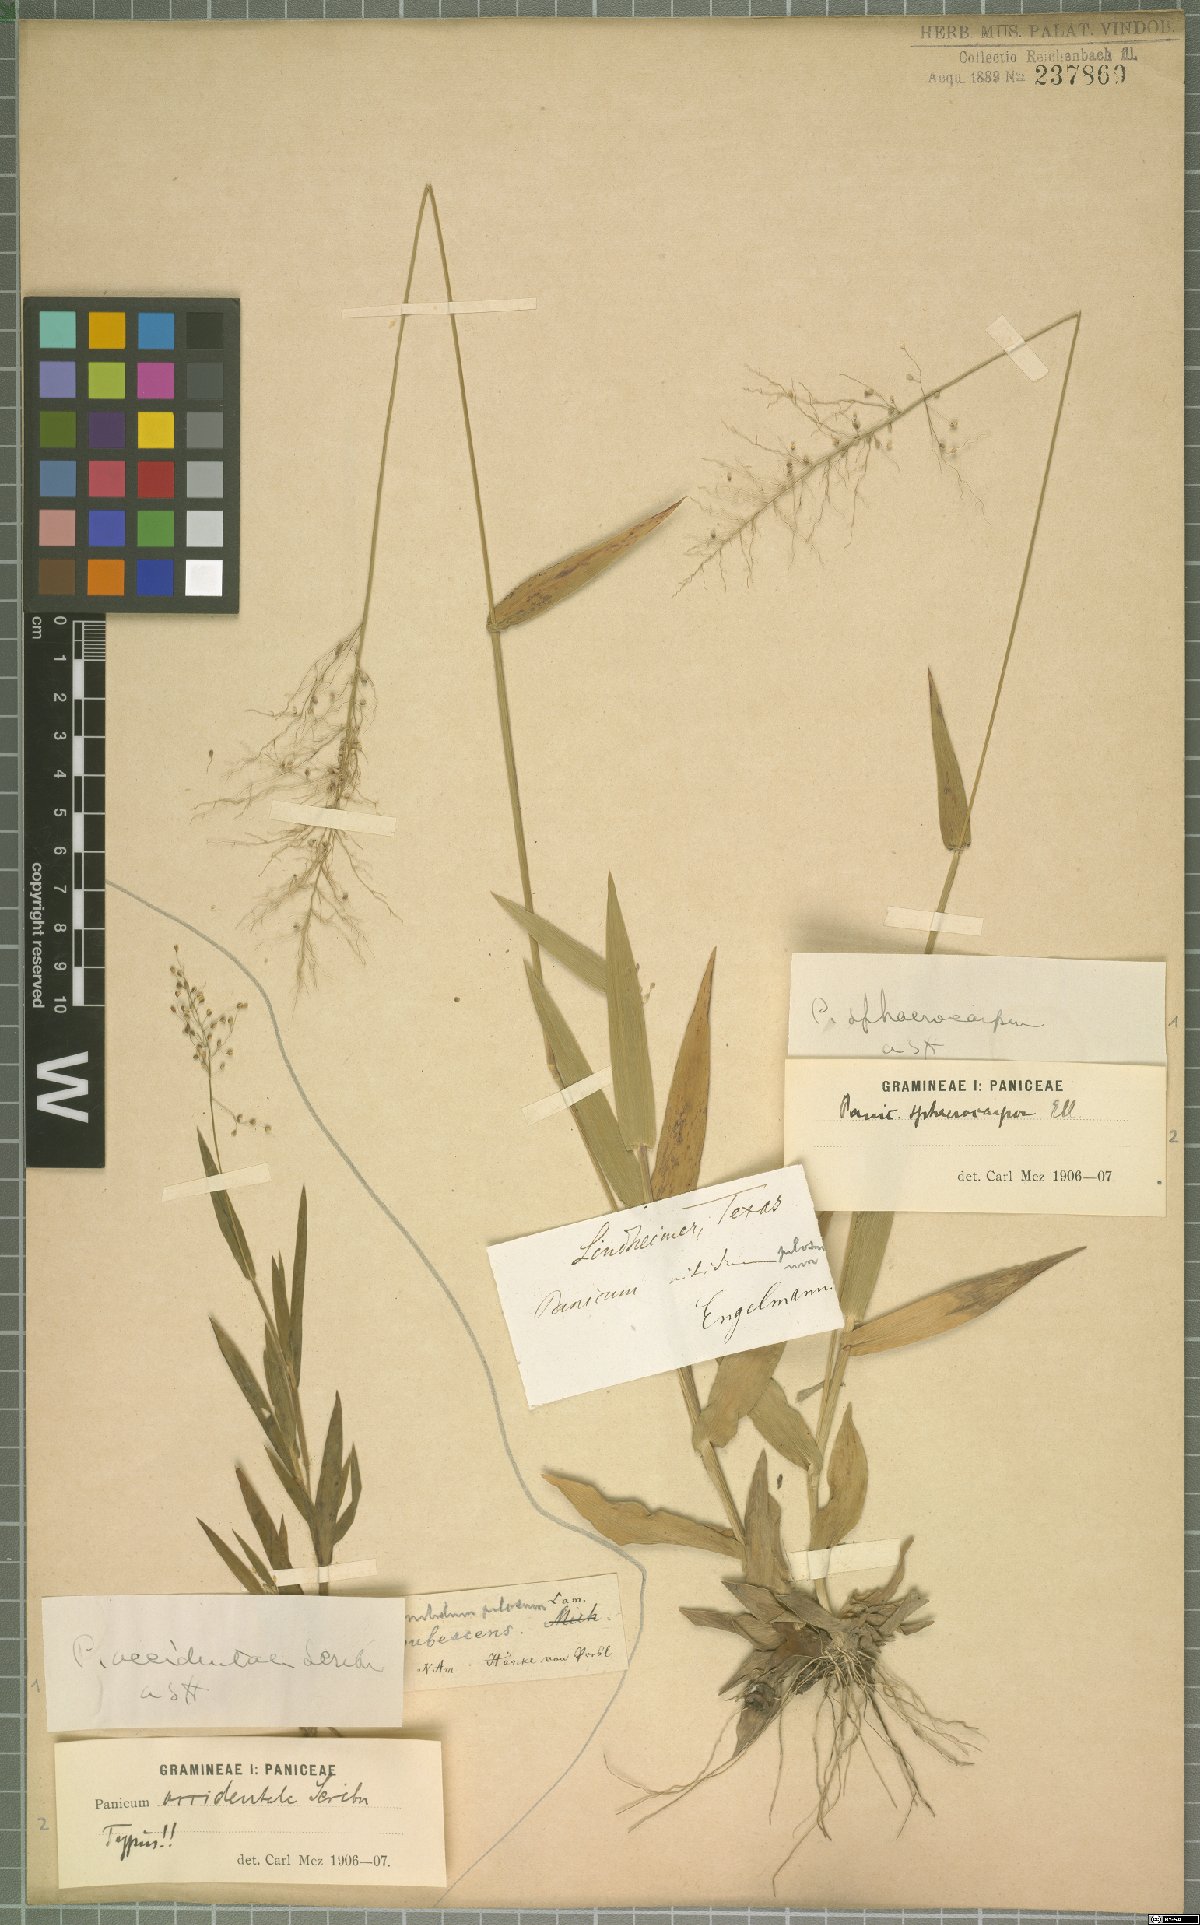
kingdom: Plantae
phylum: Tracheophyta
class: Liliopsida
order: Poales
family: Poaceae
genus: Dichanthelium
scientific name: Dichanthelium sphaerocarpon
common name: Round-fruited panicgrass
